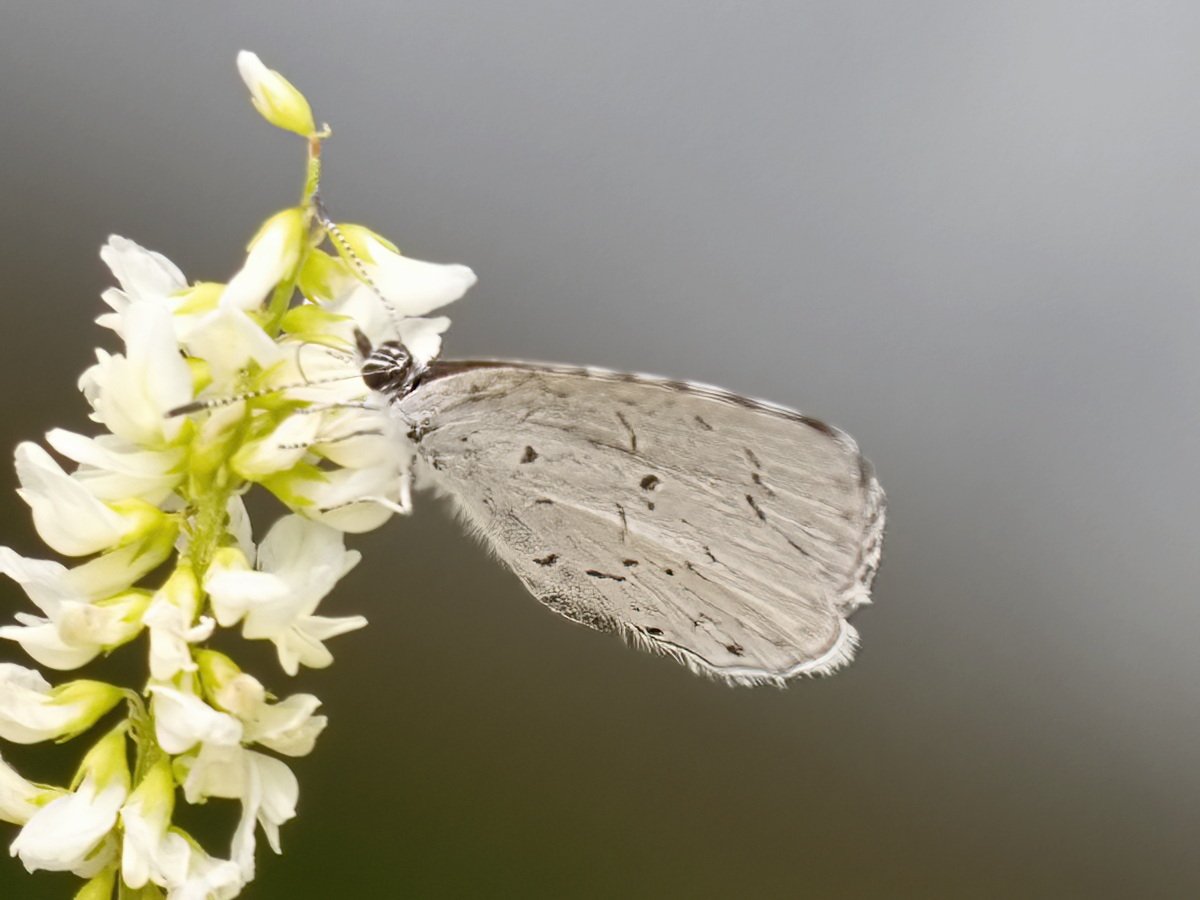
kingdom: Animalia
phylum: Arthropoda
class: Insecta
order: Lepidoptera
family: Lycaenidae
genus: Cyaniris
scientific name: Cyaniris neglecta
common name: Summer Azure
